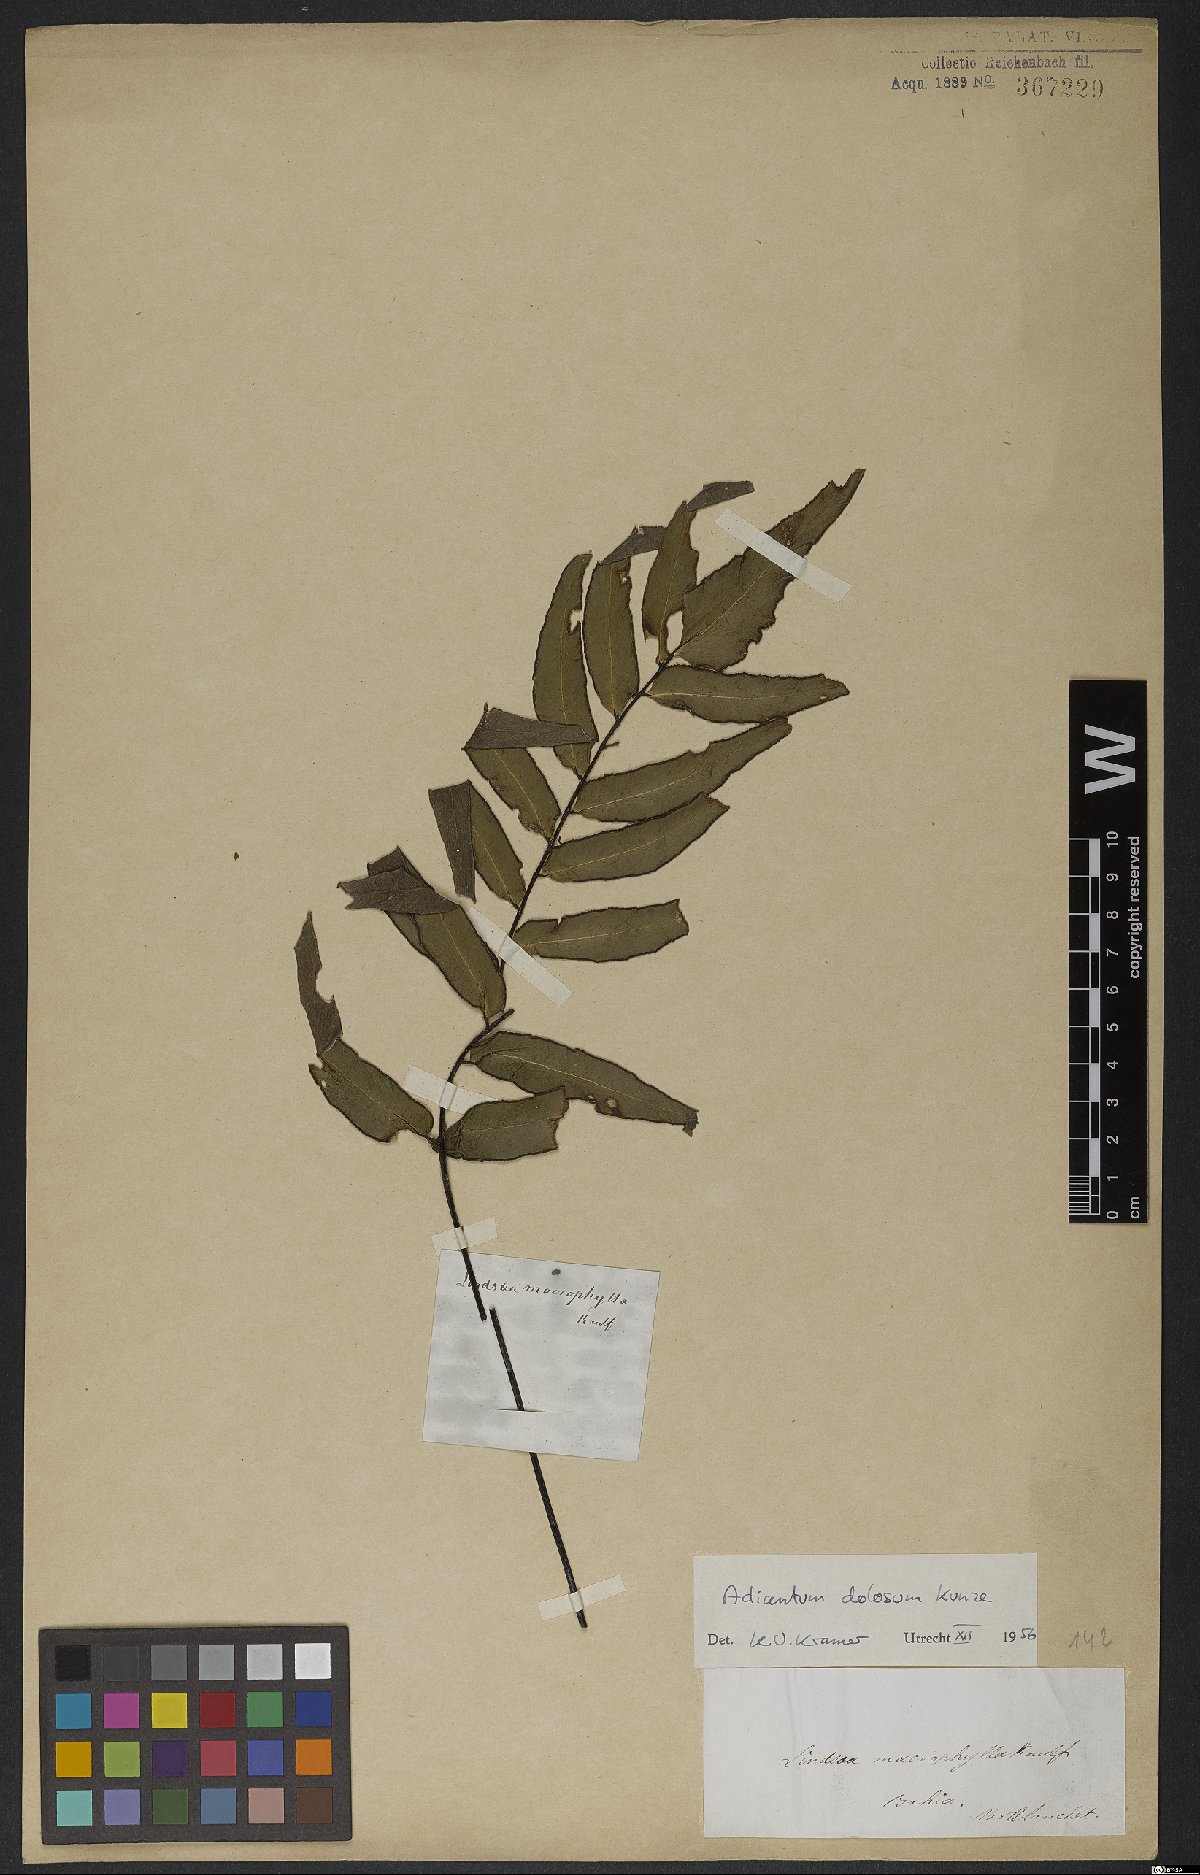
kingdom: Plantae
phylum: Tracheophyta
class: Polypodiopsida
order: Polypodiales
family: Pteridaceae
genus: Adiantum
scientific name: Adiantum dolosum
